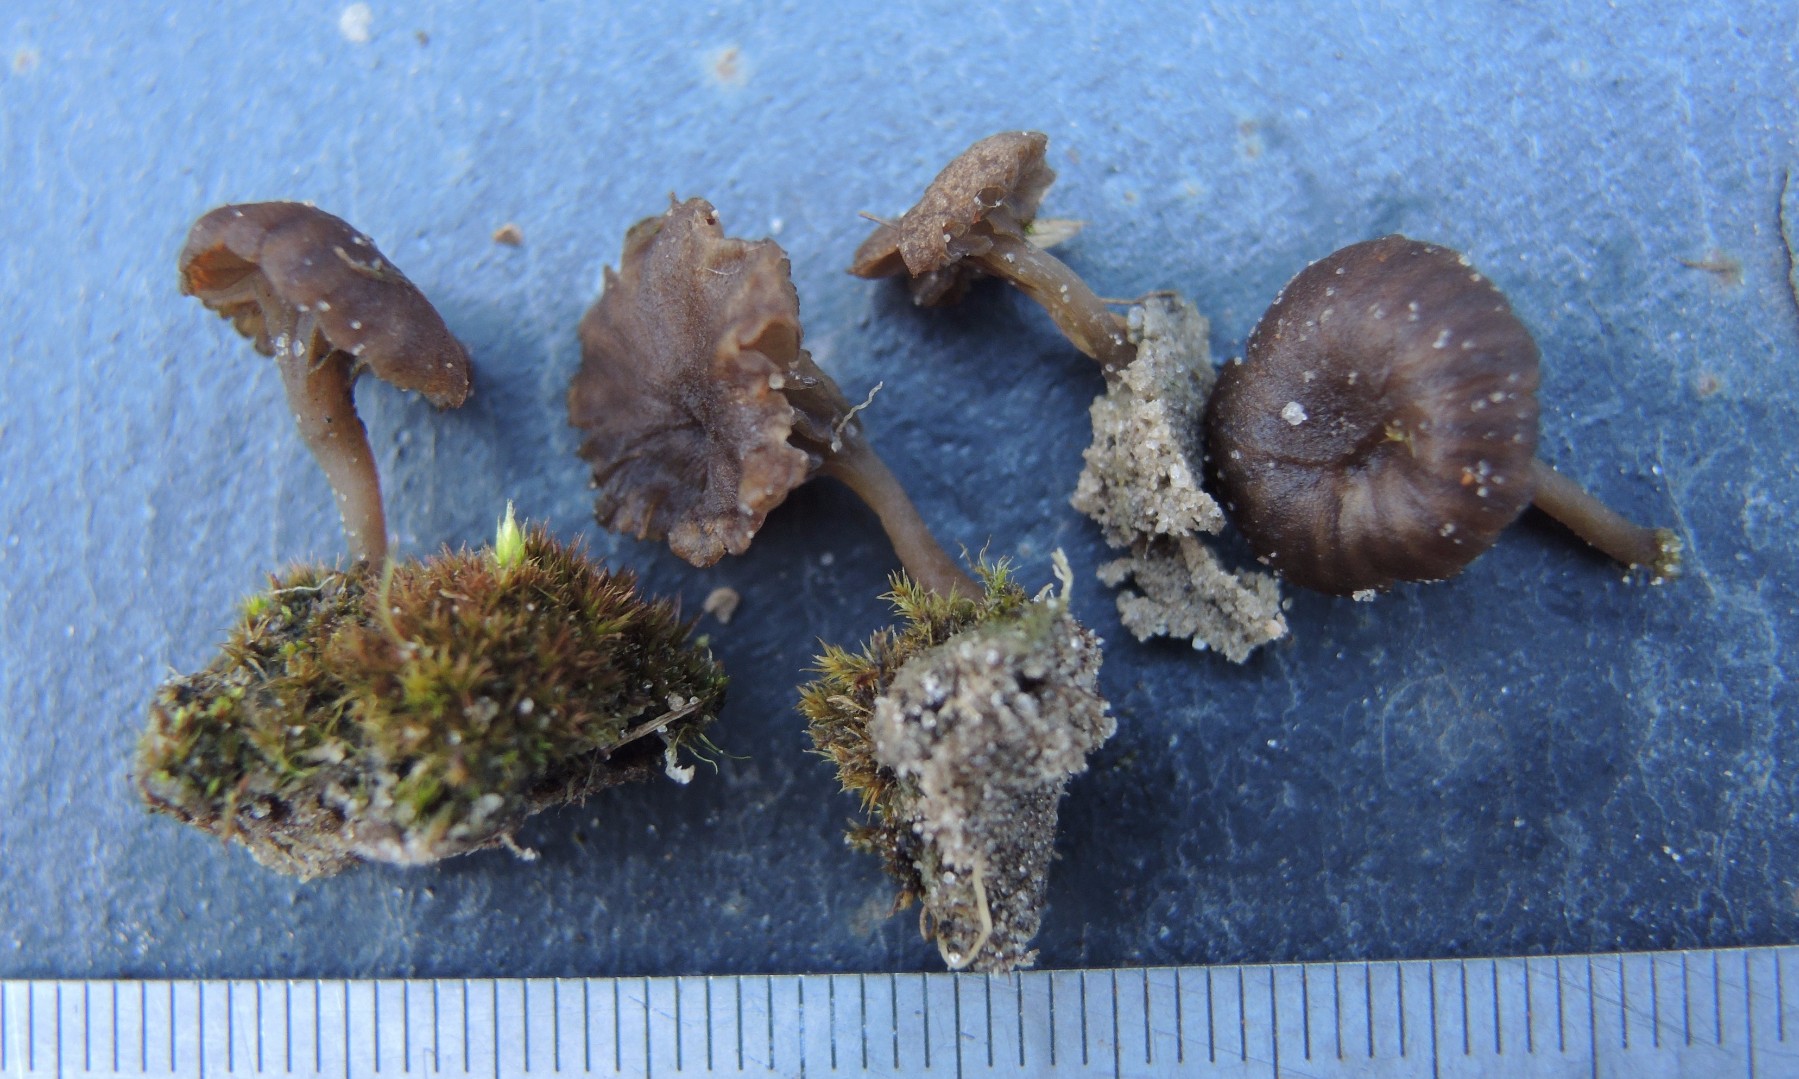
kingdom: Fungi
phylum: Basidiomycota
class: Agaricomycetes
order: Agaricales
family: Hygrophoraceae
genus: Arrhenia
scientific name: Arrhenia obscurata
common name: hede-fontænehat
